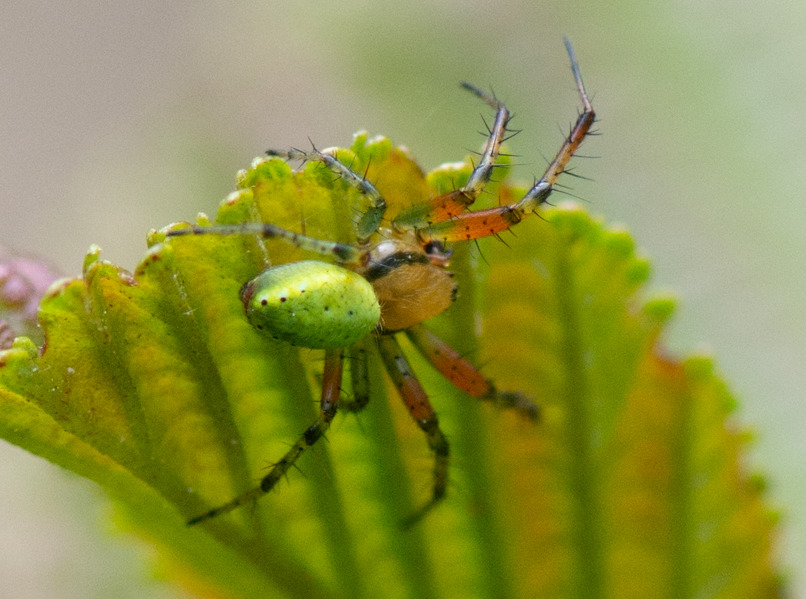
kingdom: Animalia
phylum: Arthropoda
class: Arachnida
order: Araneae
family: Araneidae
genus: Araniella
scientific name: Araniella
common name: Agurkeedderkopslægten
